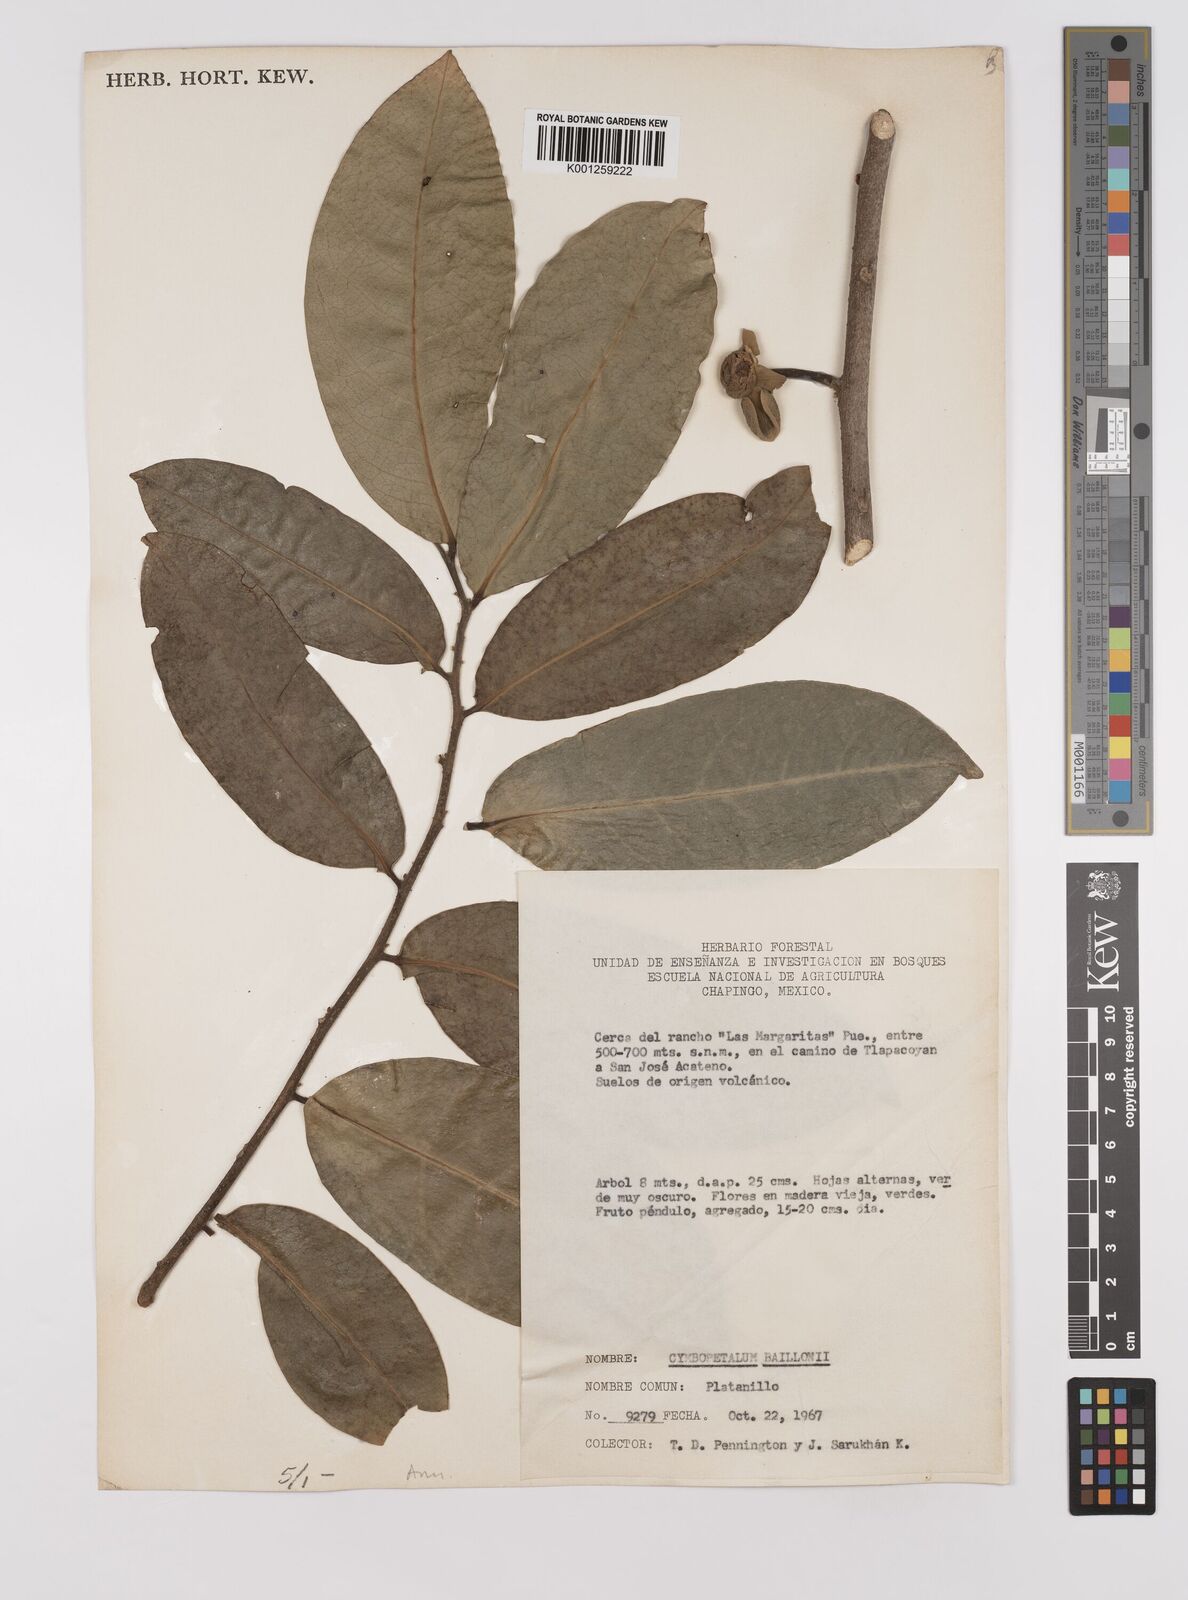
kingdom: Plantae
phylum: Tracheophyta
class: Magnoliopsida
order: Magnoliales
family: Annonaceae
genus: Cymbopetalum
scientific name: Cymbopetalum baillonii
